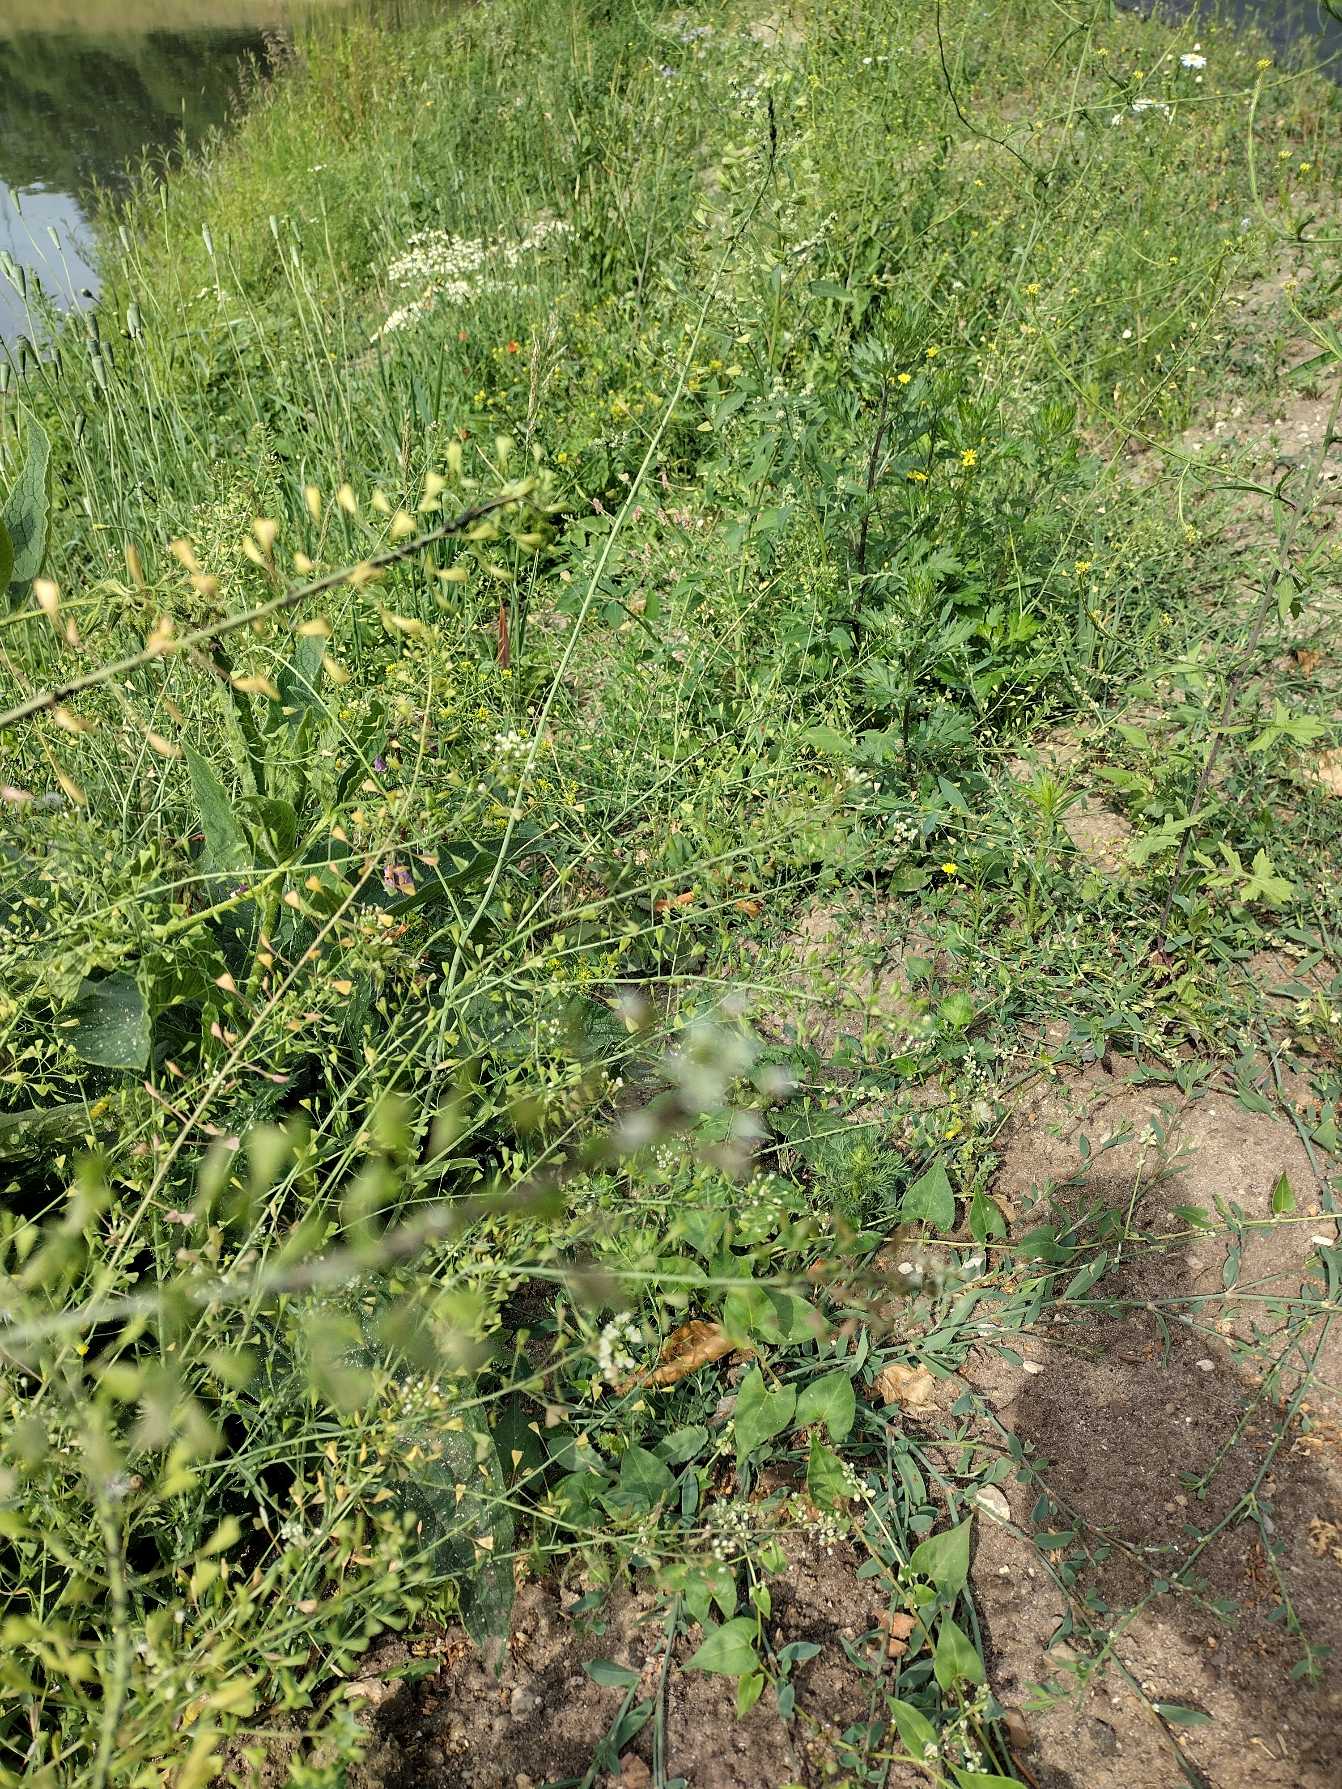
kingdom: Plantae
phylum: Tracheophyta
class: Magnoliopsida
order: Brassicales
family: Brassicaceae
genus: Capsella
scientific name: Capsella bursa-pastoris
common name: Hyrdetaske
